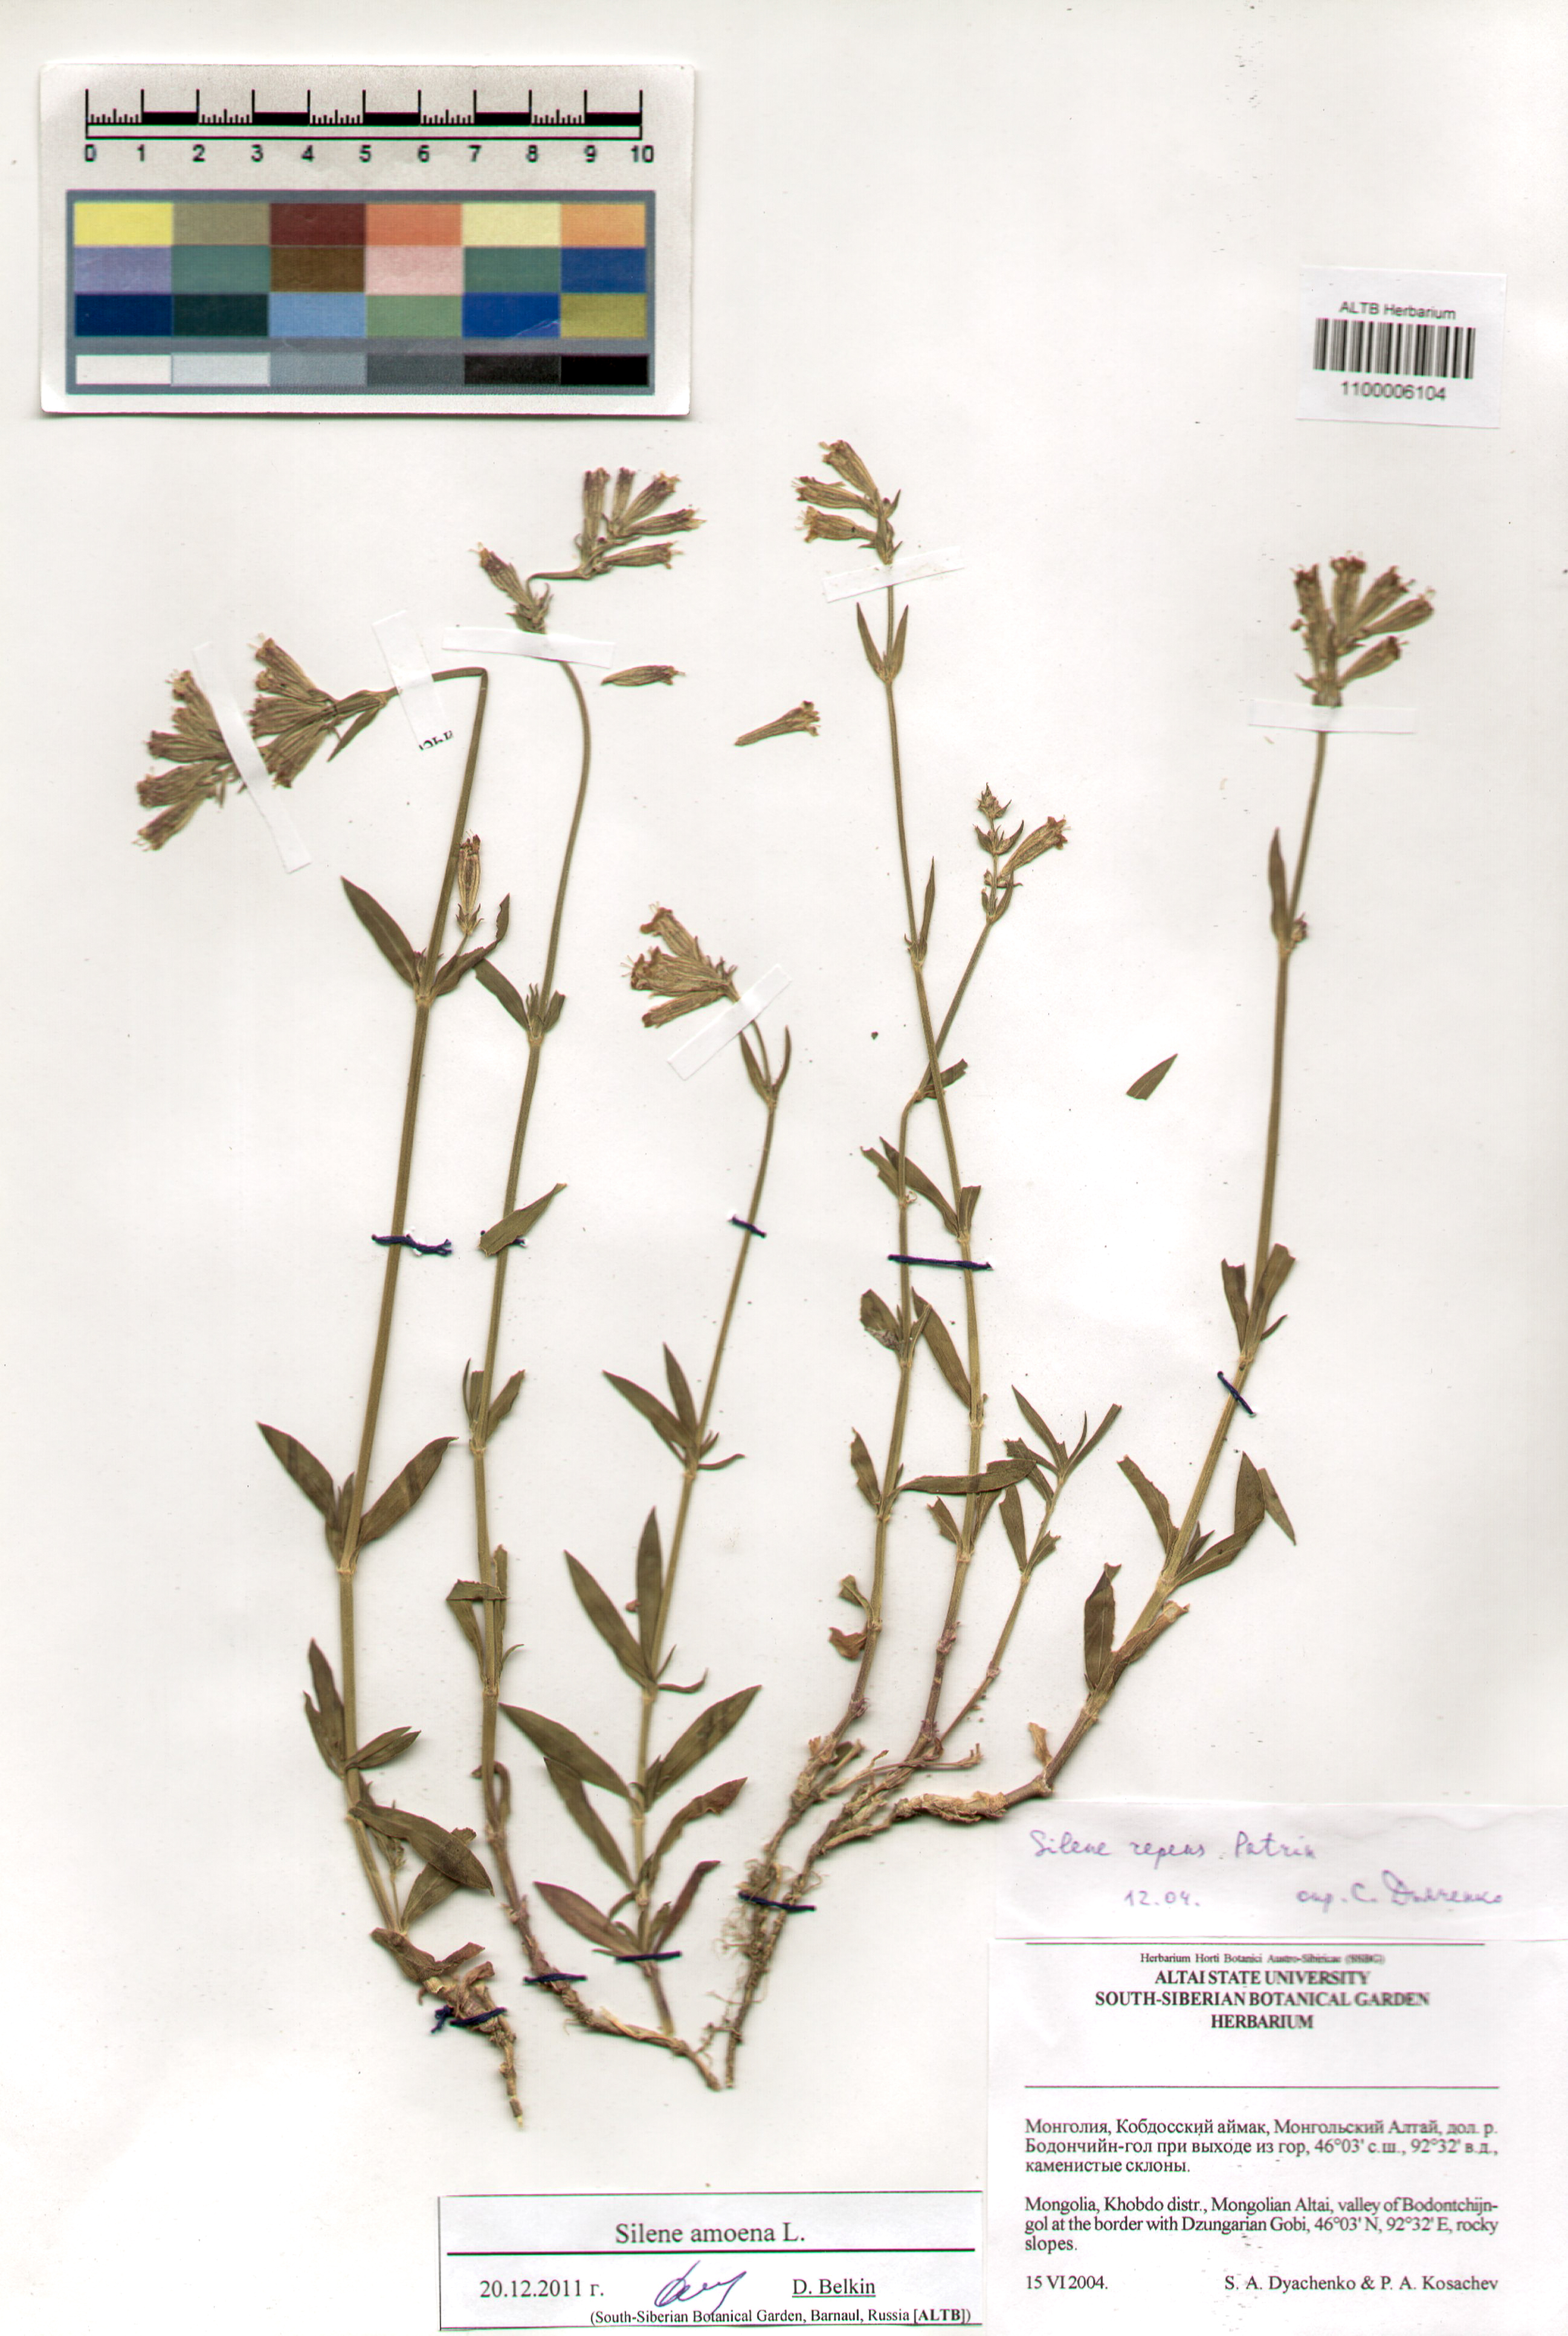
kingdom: Plantae
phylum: Tracheophyta
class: Magnoliopsida
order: Caryophyllales
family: Caryophyllaceae
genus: Silene
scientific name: Silene amoena
